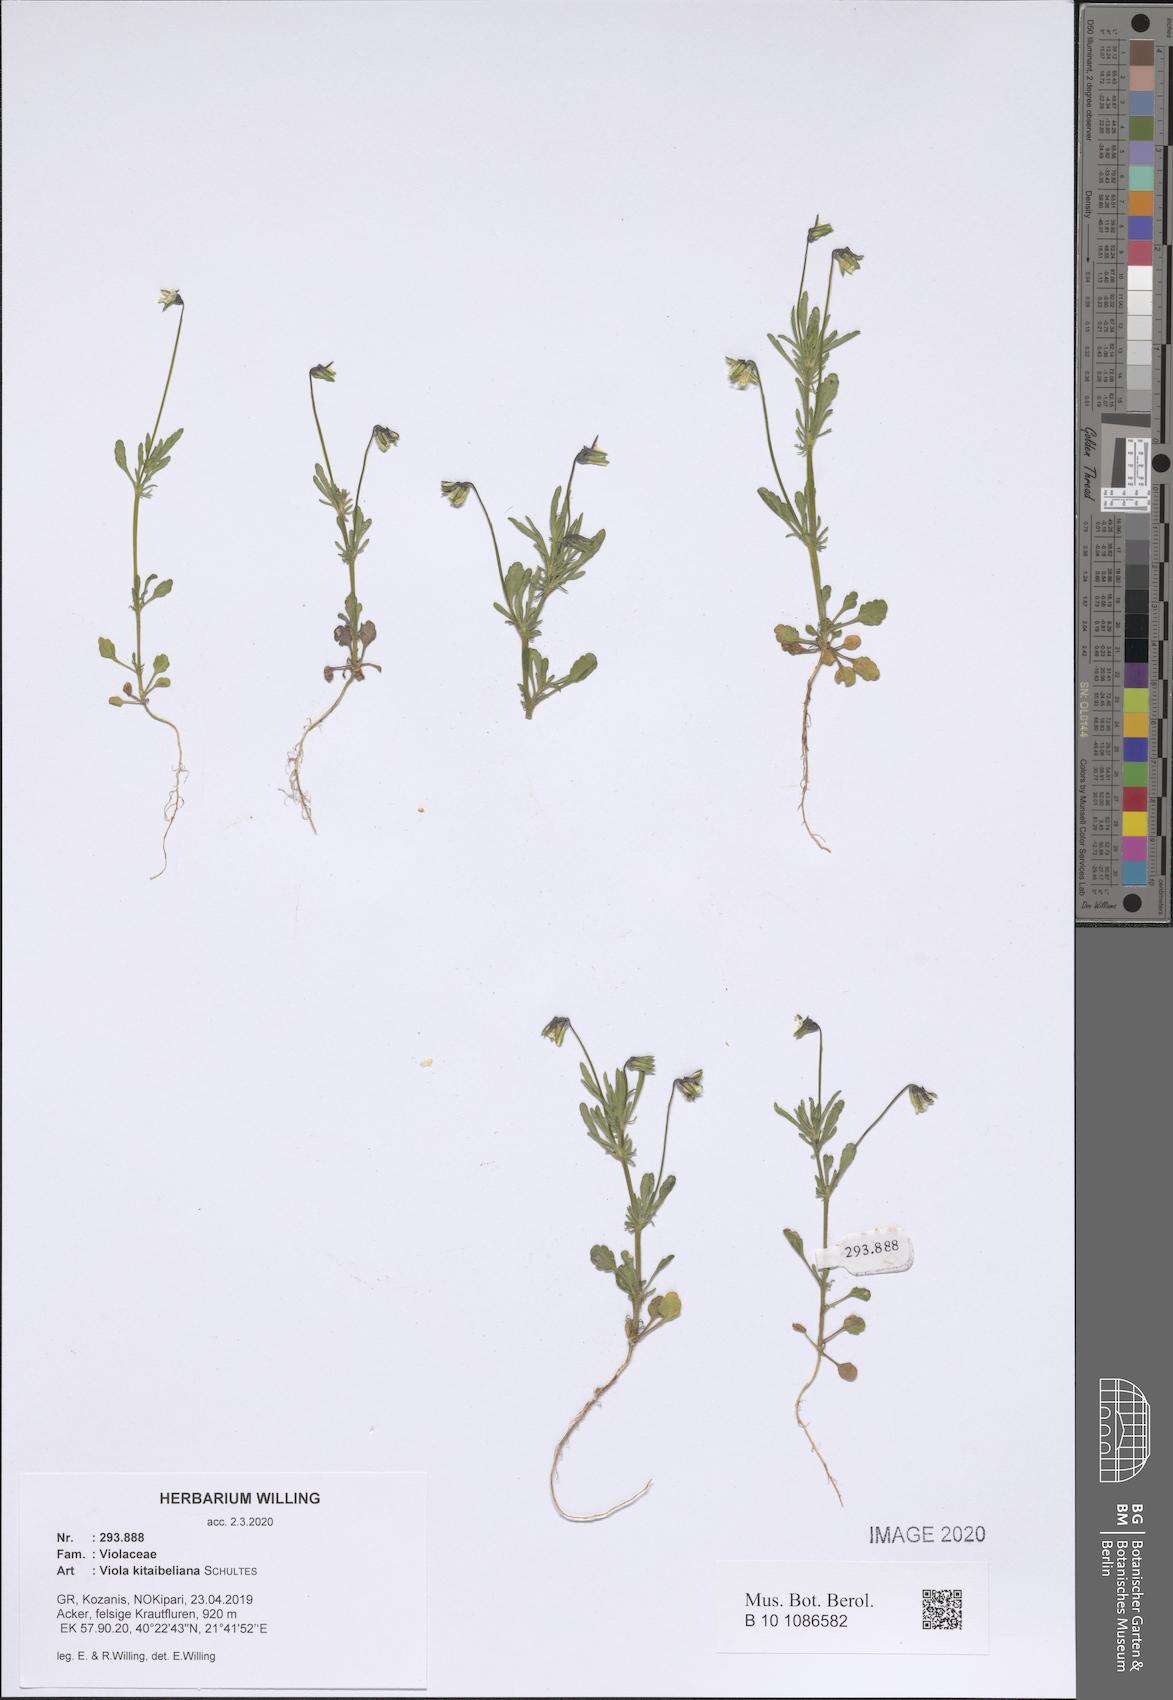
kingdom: Plantae
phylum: Tracheophyta
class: Magnoliopsida
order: Malpighiales
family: Violaceae
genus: Viola
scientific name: Viola kitaibeliana
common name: Dwarf pansy
